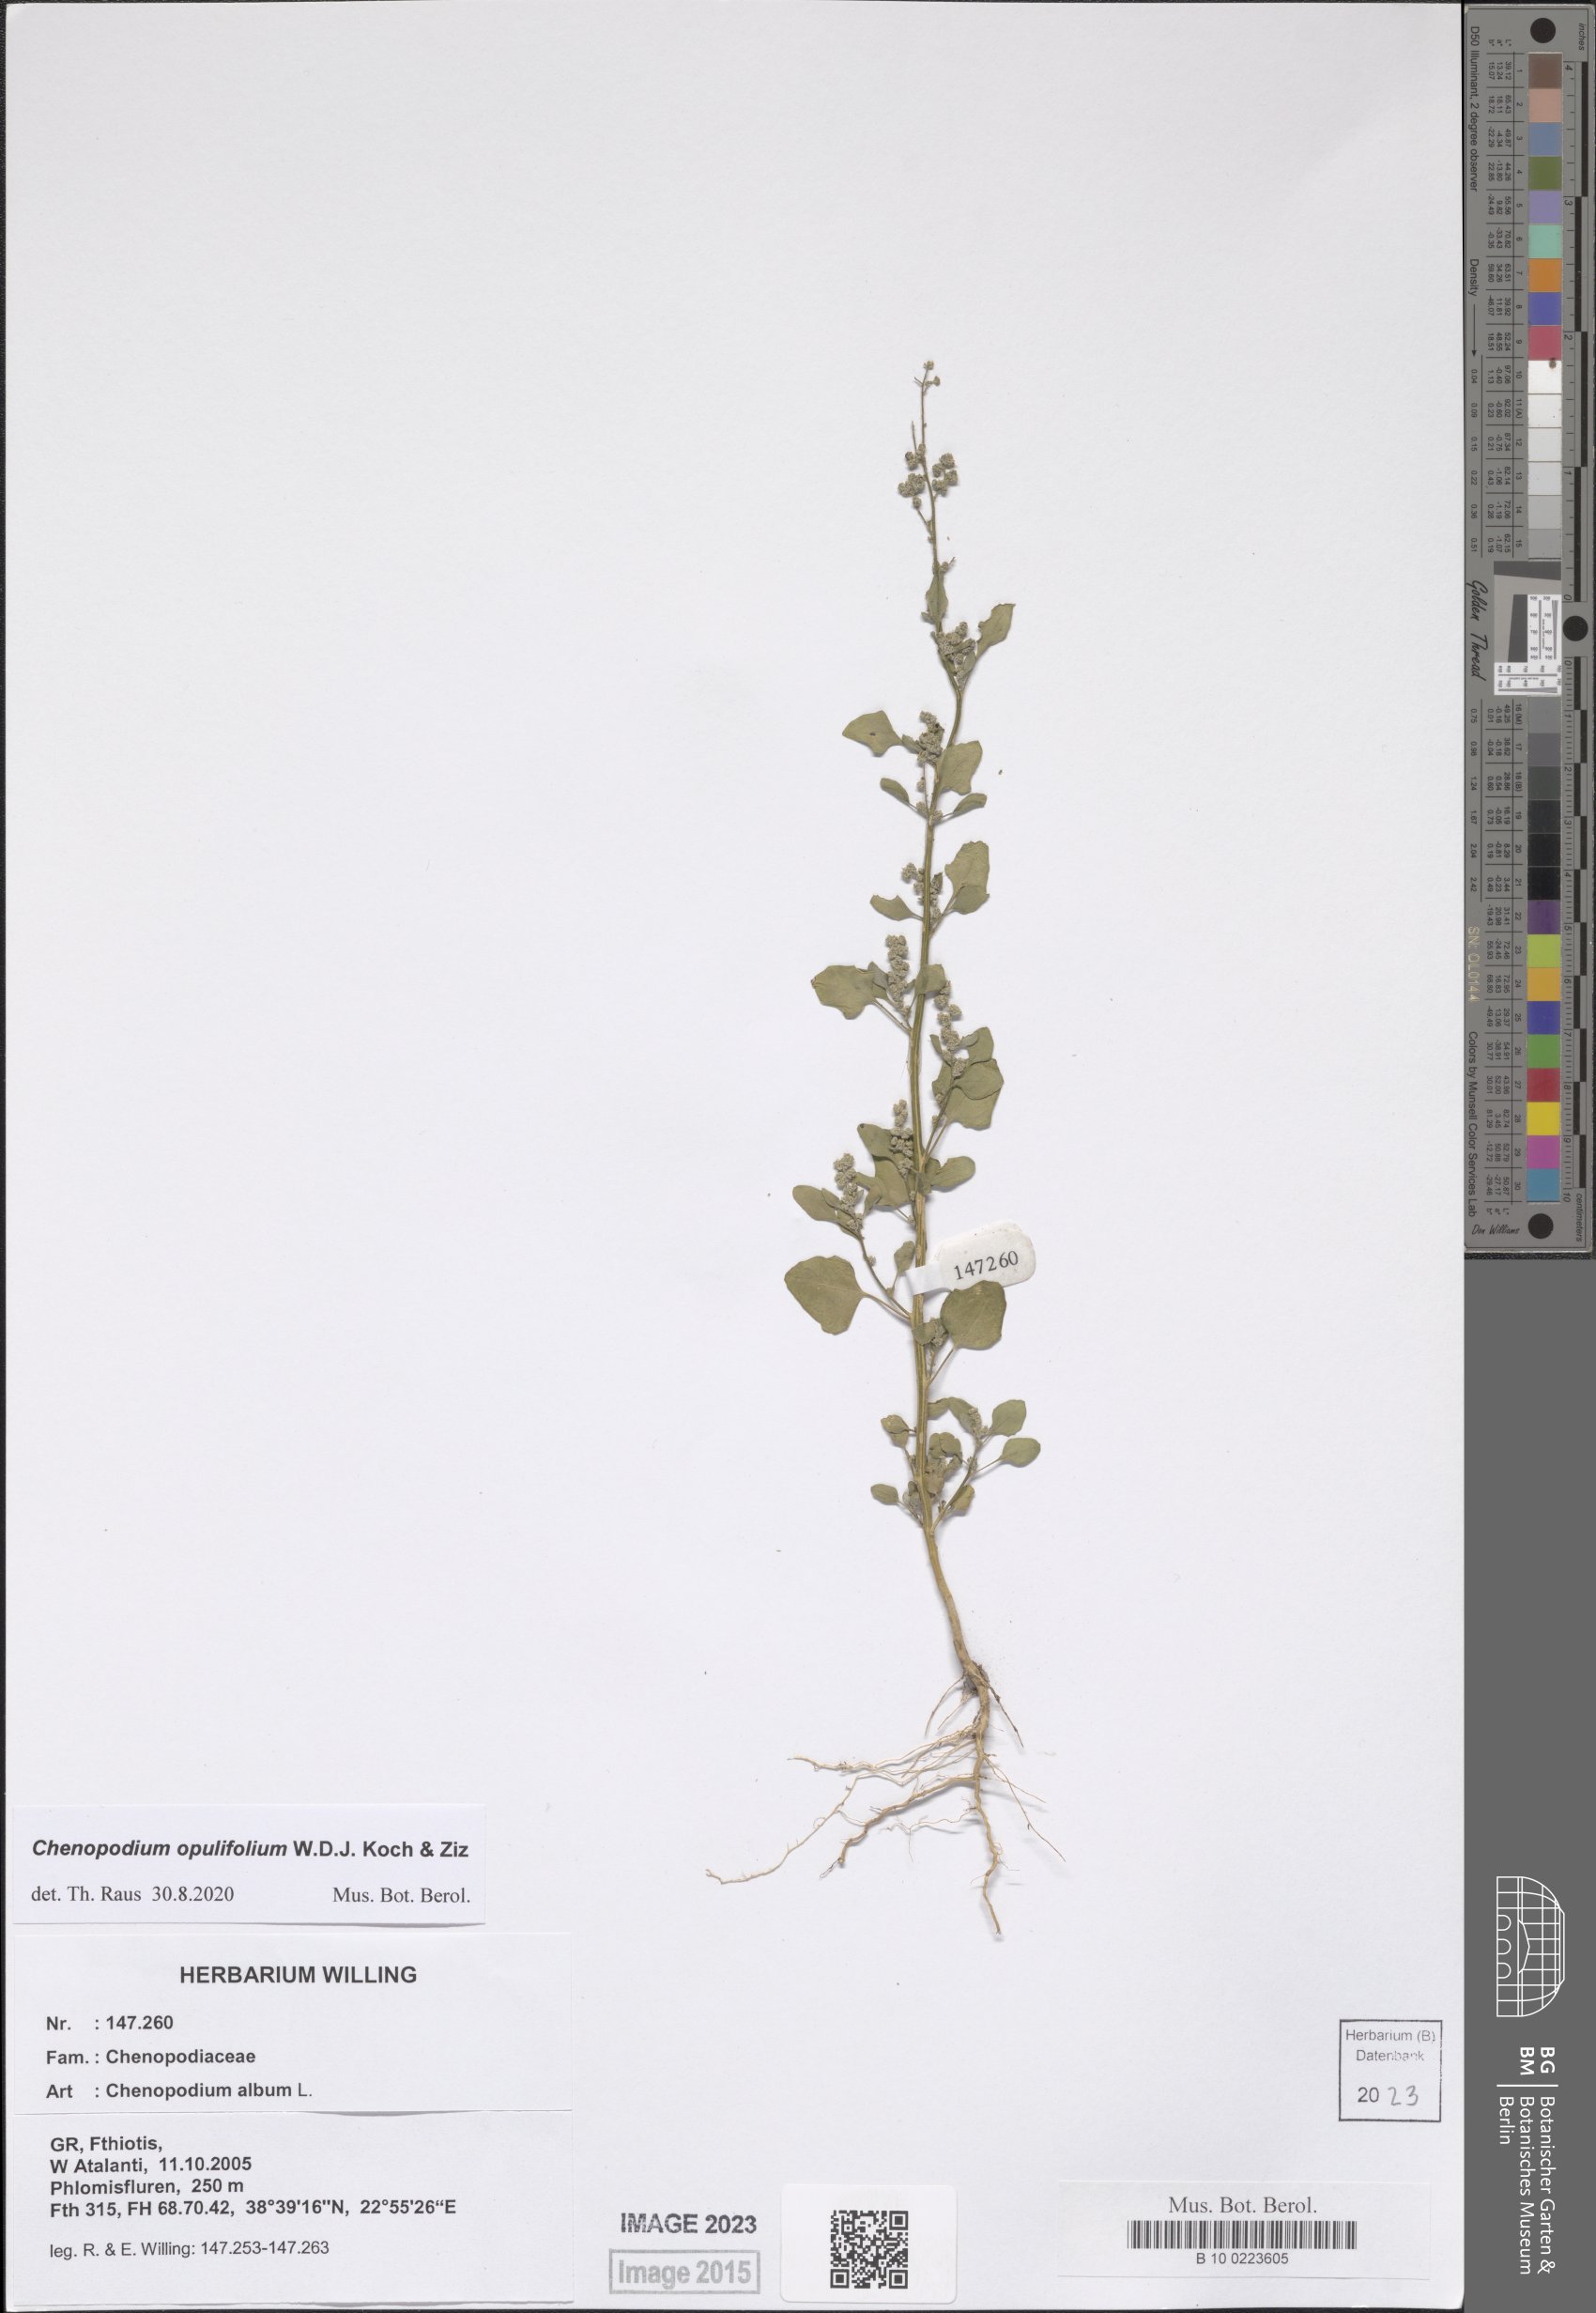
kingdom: Plantae
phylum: Tracheophyta
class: Magnoliopsida
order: Caryophyllales
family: Amaranthaceae
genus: Chenopodium
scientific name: Chenopodium opulifolium
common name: Grey goosefoot
